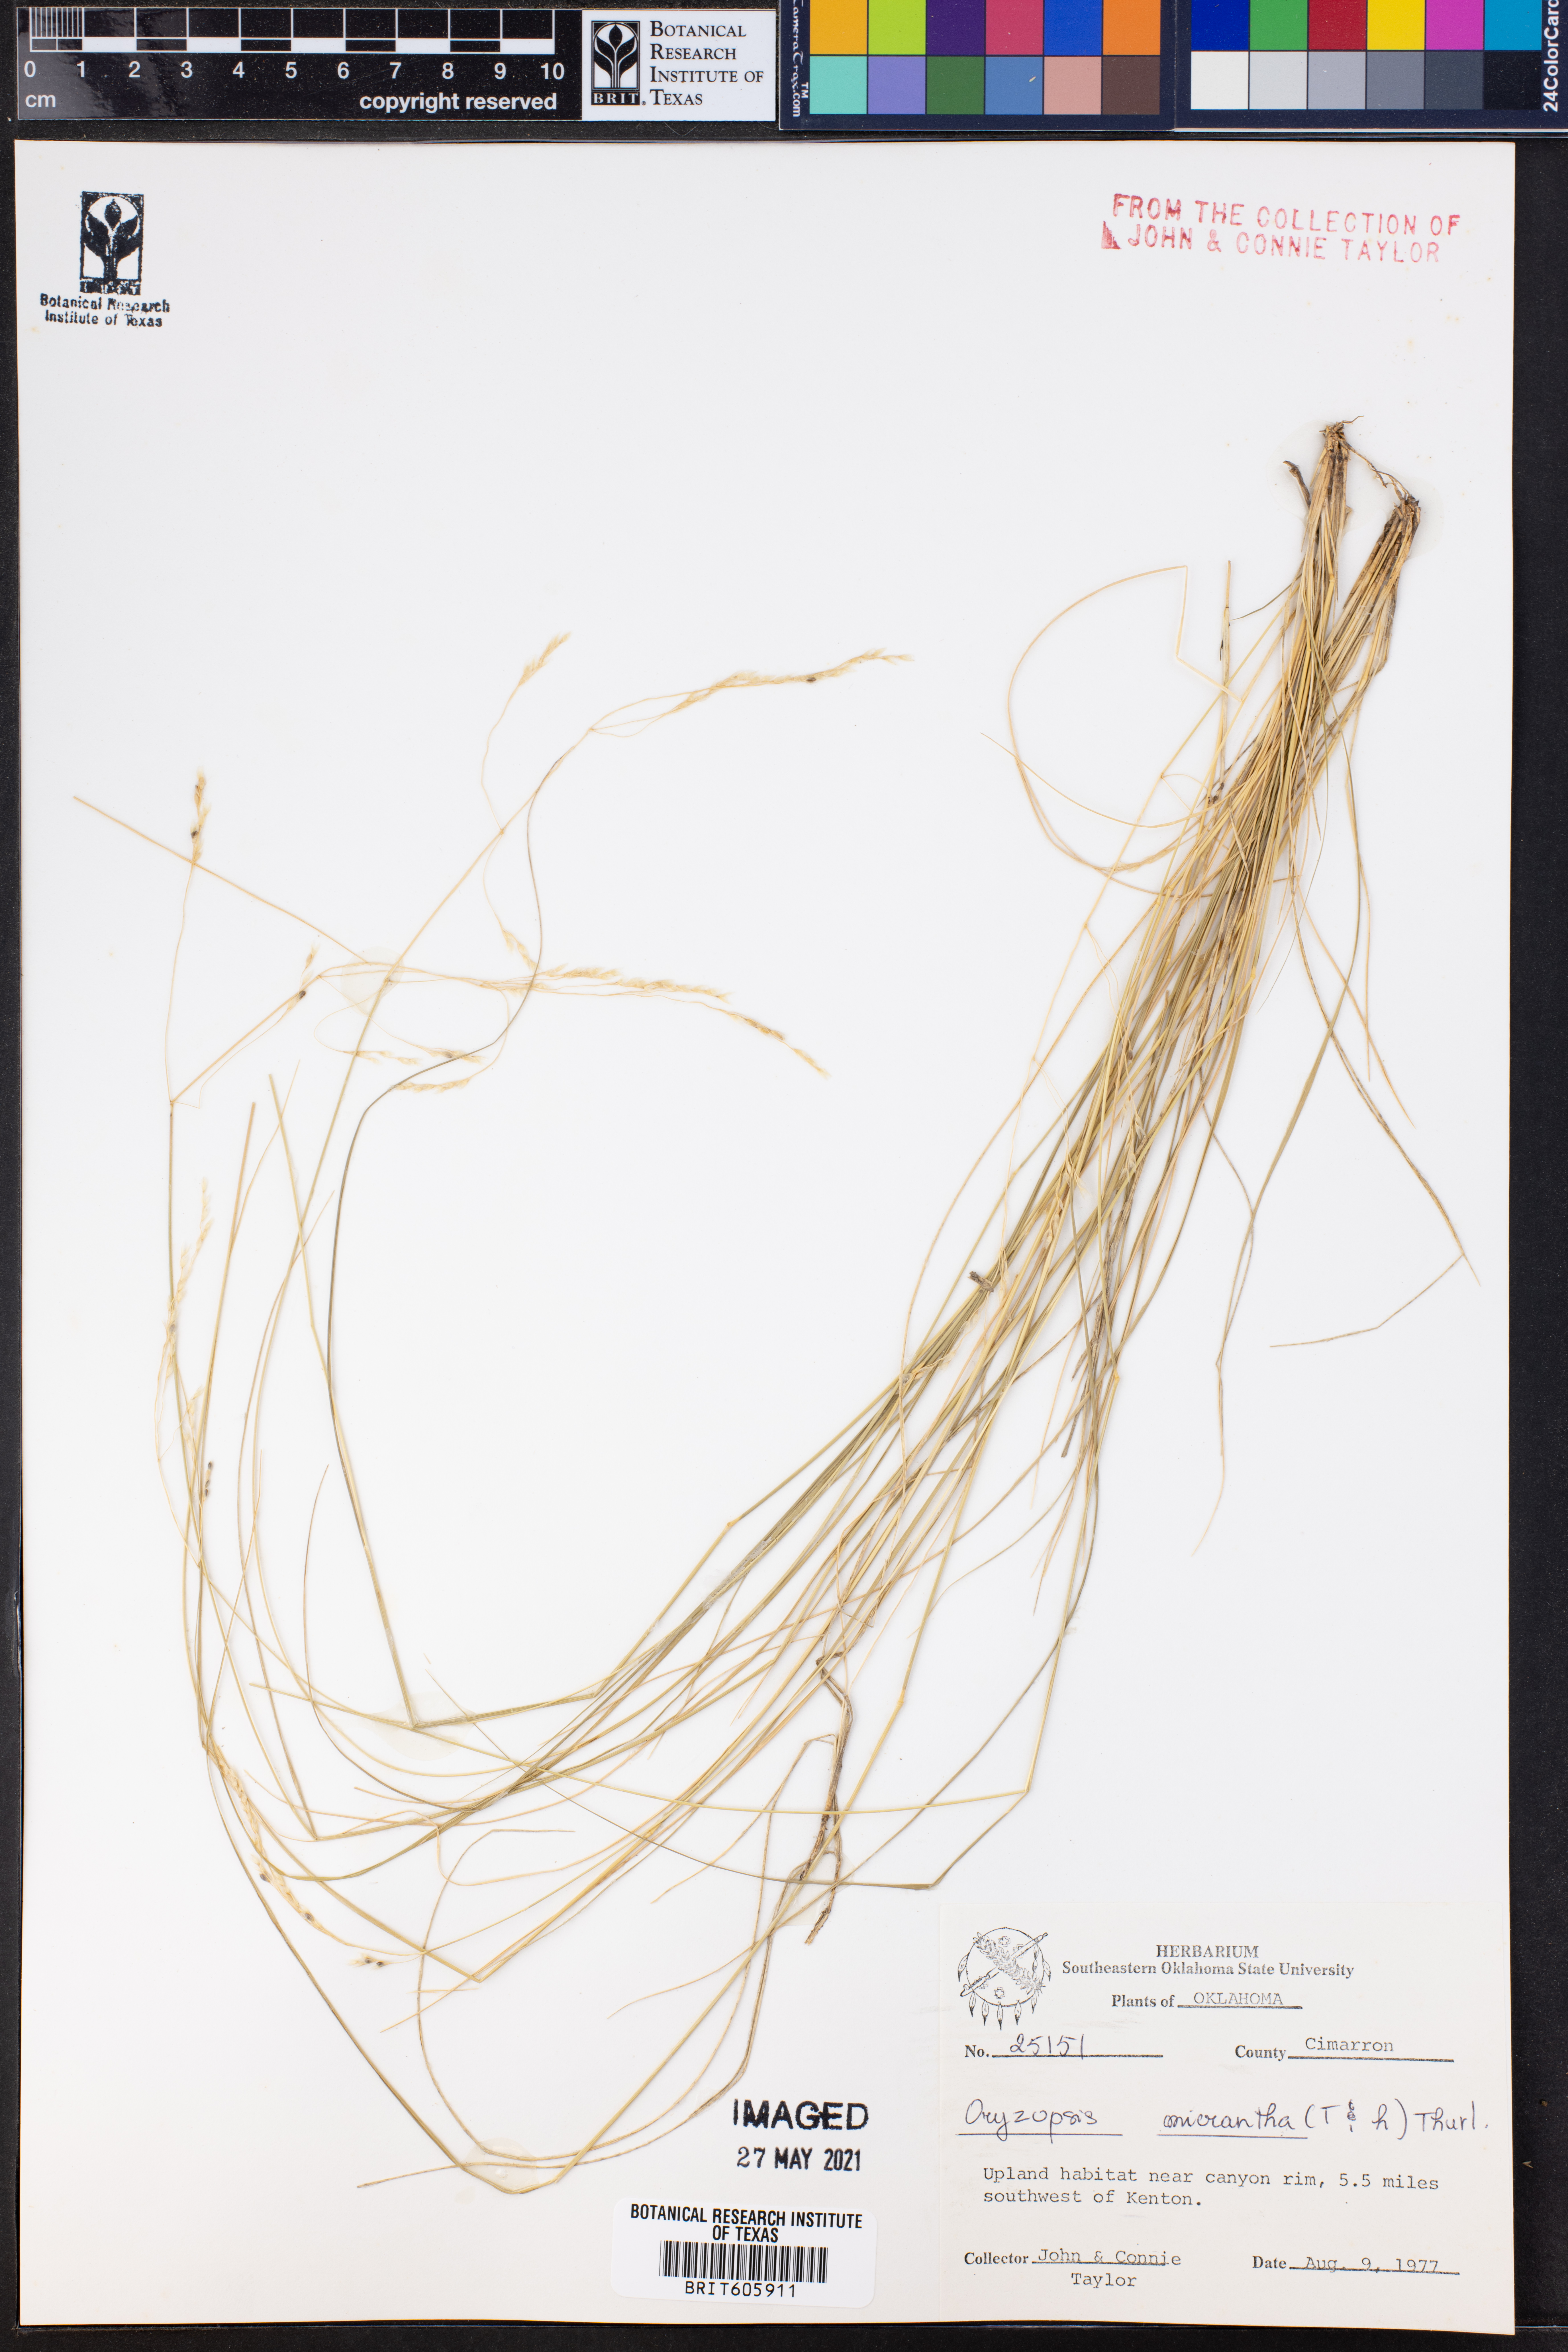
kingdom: Plantae
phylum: Tracheophyta
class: Liliopsida
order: Poales
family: Poaceae
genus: Piptatheropsis
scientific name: Piptatheropsis micrantha
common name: Little-seed mountain ricegrass
